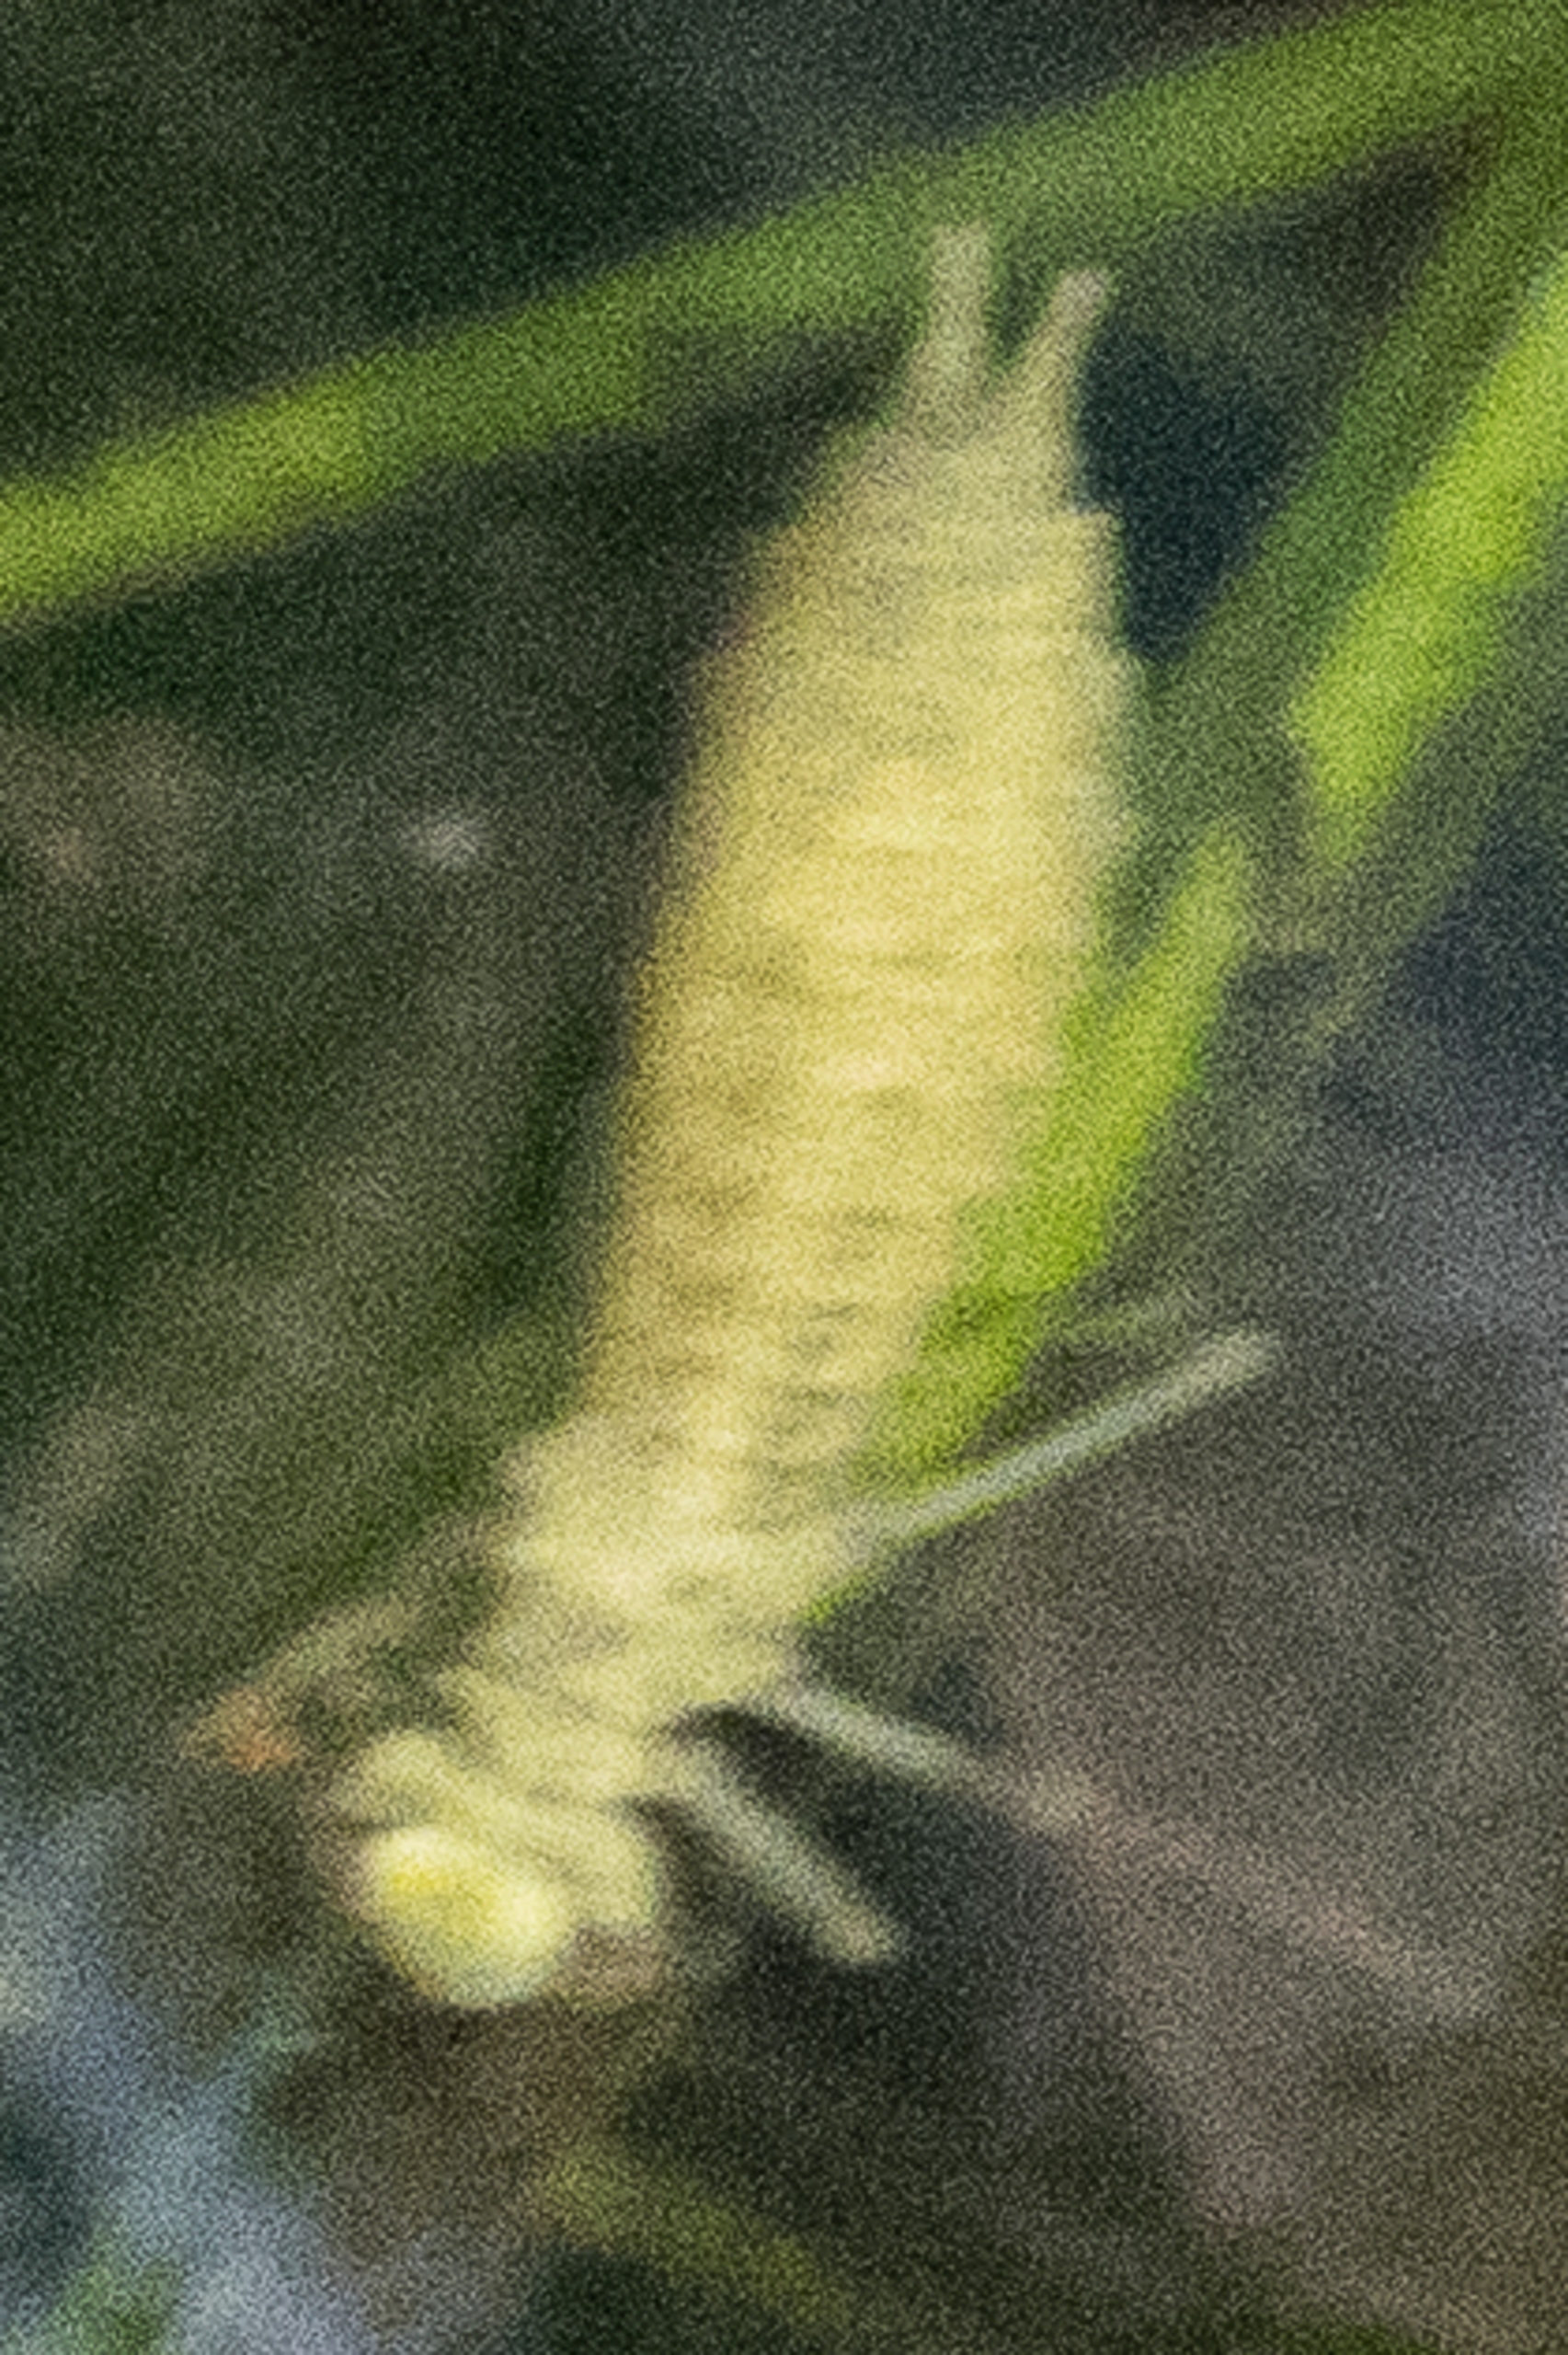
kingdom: Animalia
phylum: Arthropoda
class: Insecta
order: Odonata
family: Aeshnidae
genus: Aeshna
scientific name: Aeshna
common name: Mosaikguldsmede
